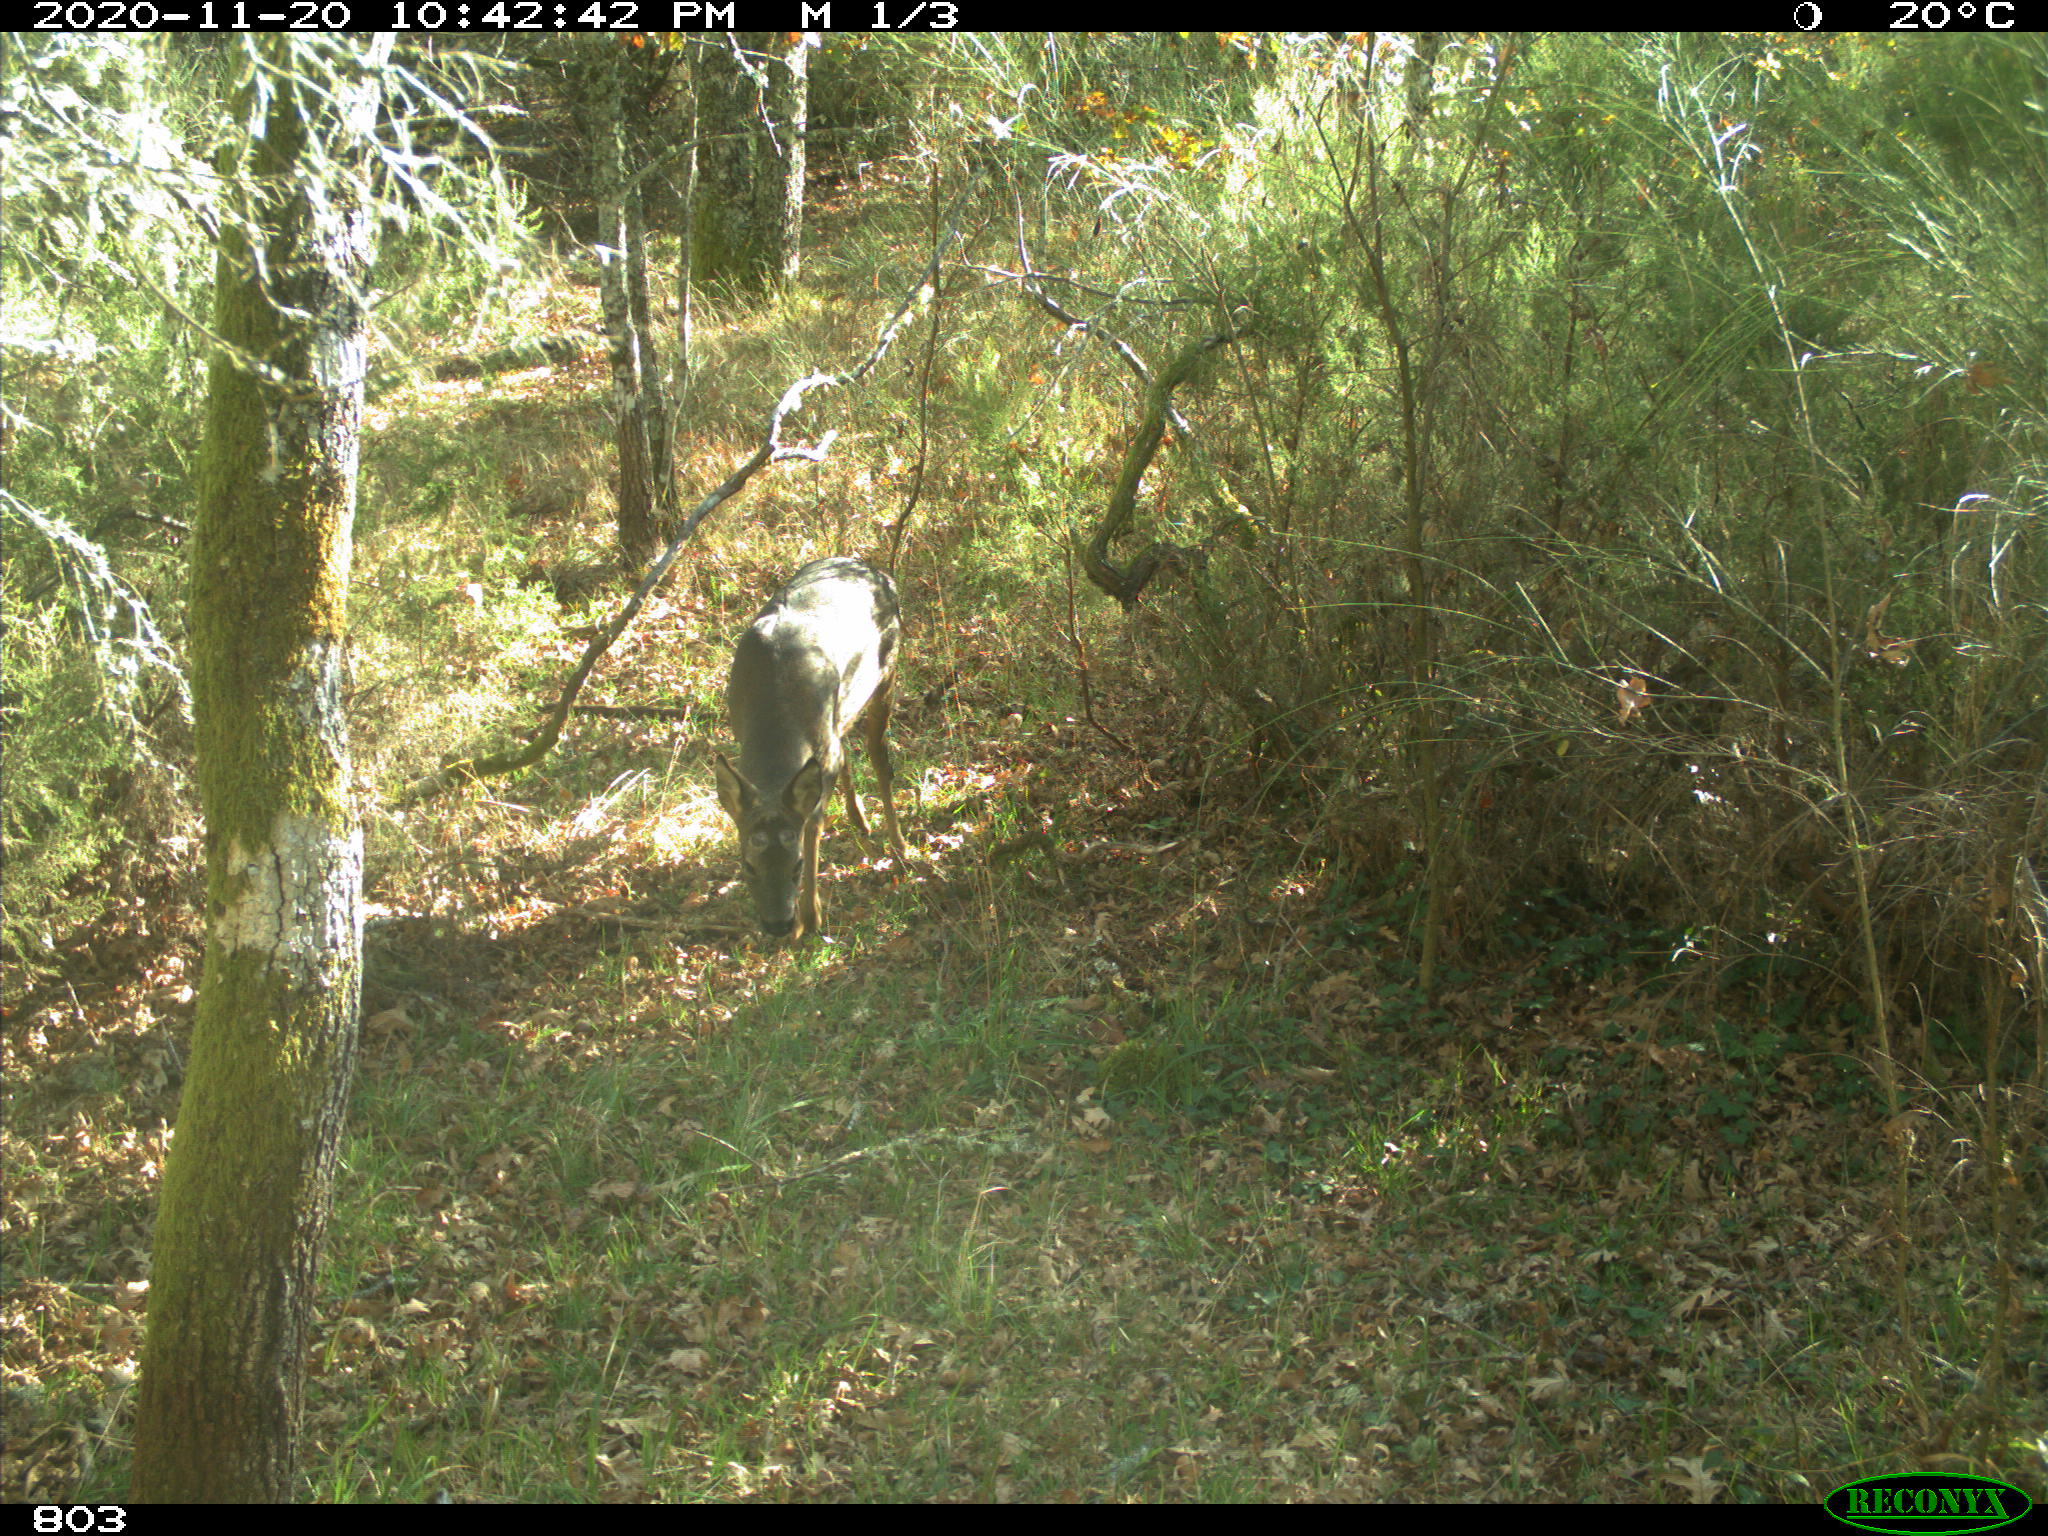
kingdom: Animalia
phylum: Chordata
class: Mammalia
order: Artiodactyla
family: Cervidae
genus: Capreolus
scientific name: Capreolus capreolus
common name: Western roe deer
